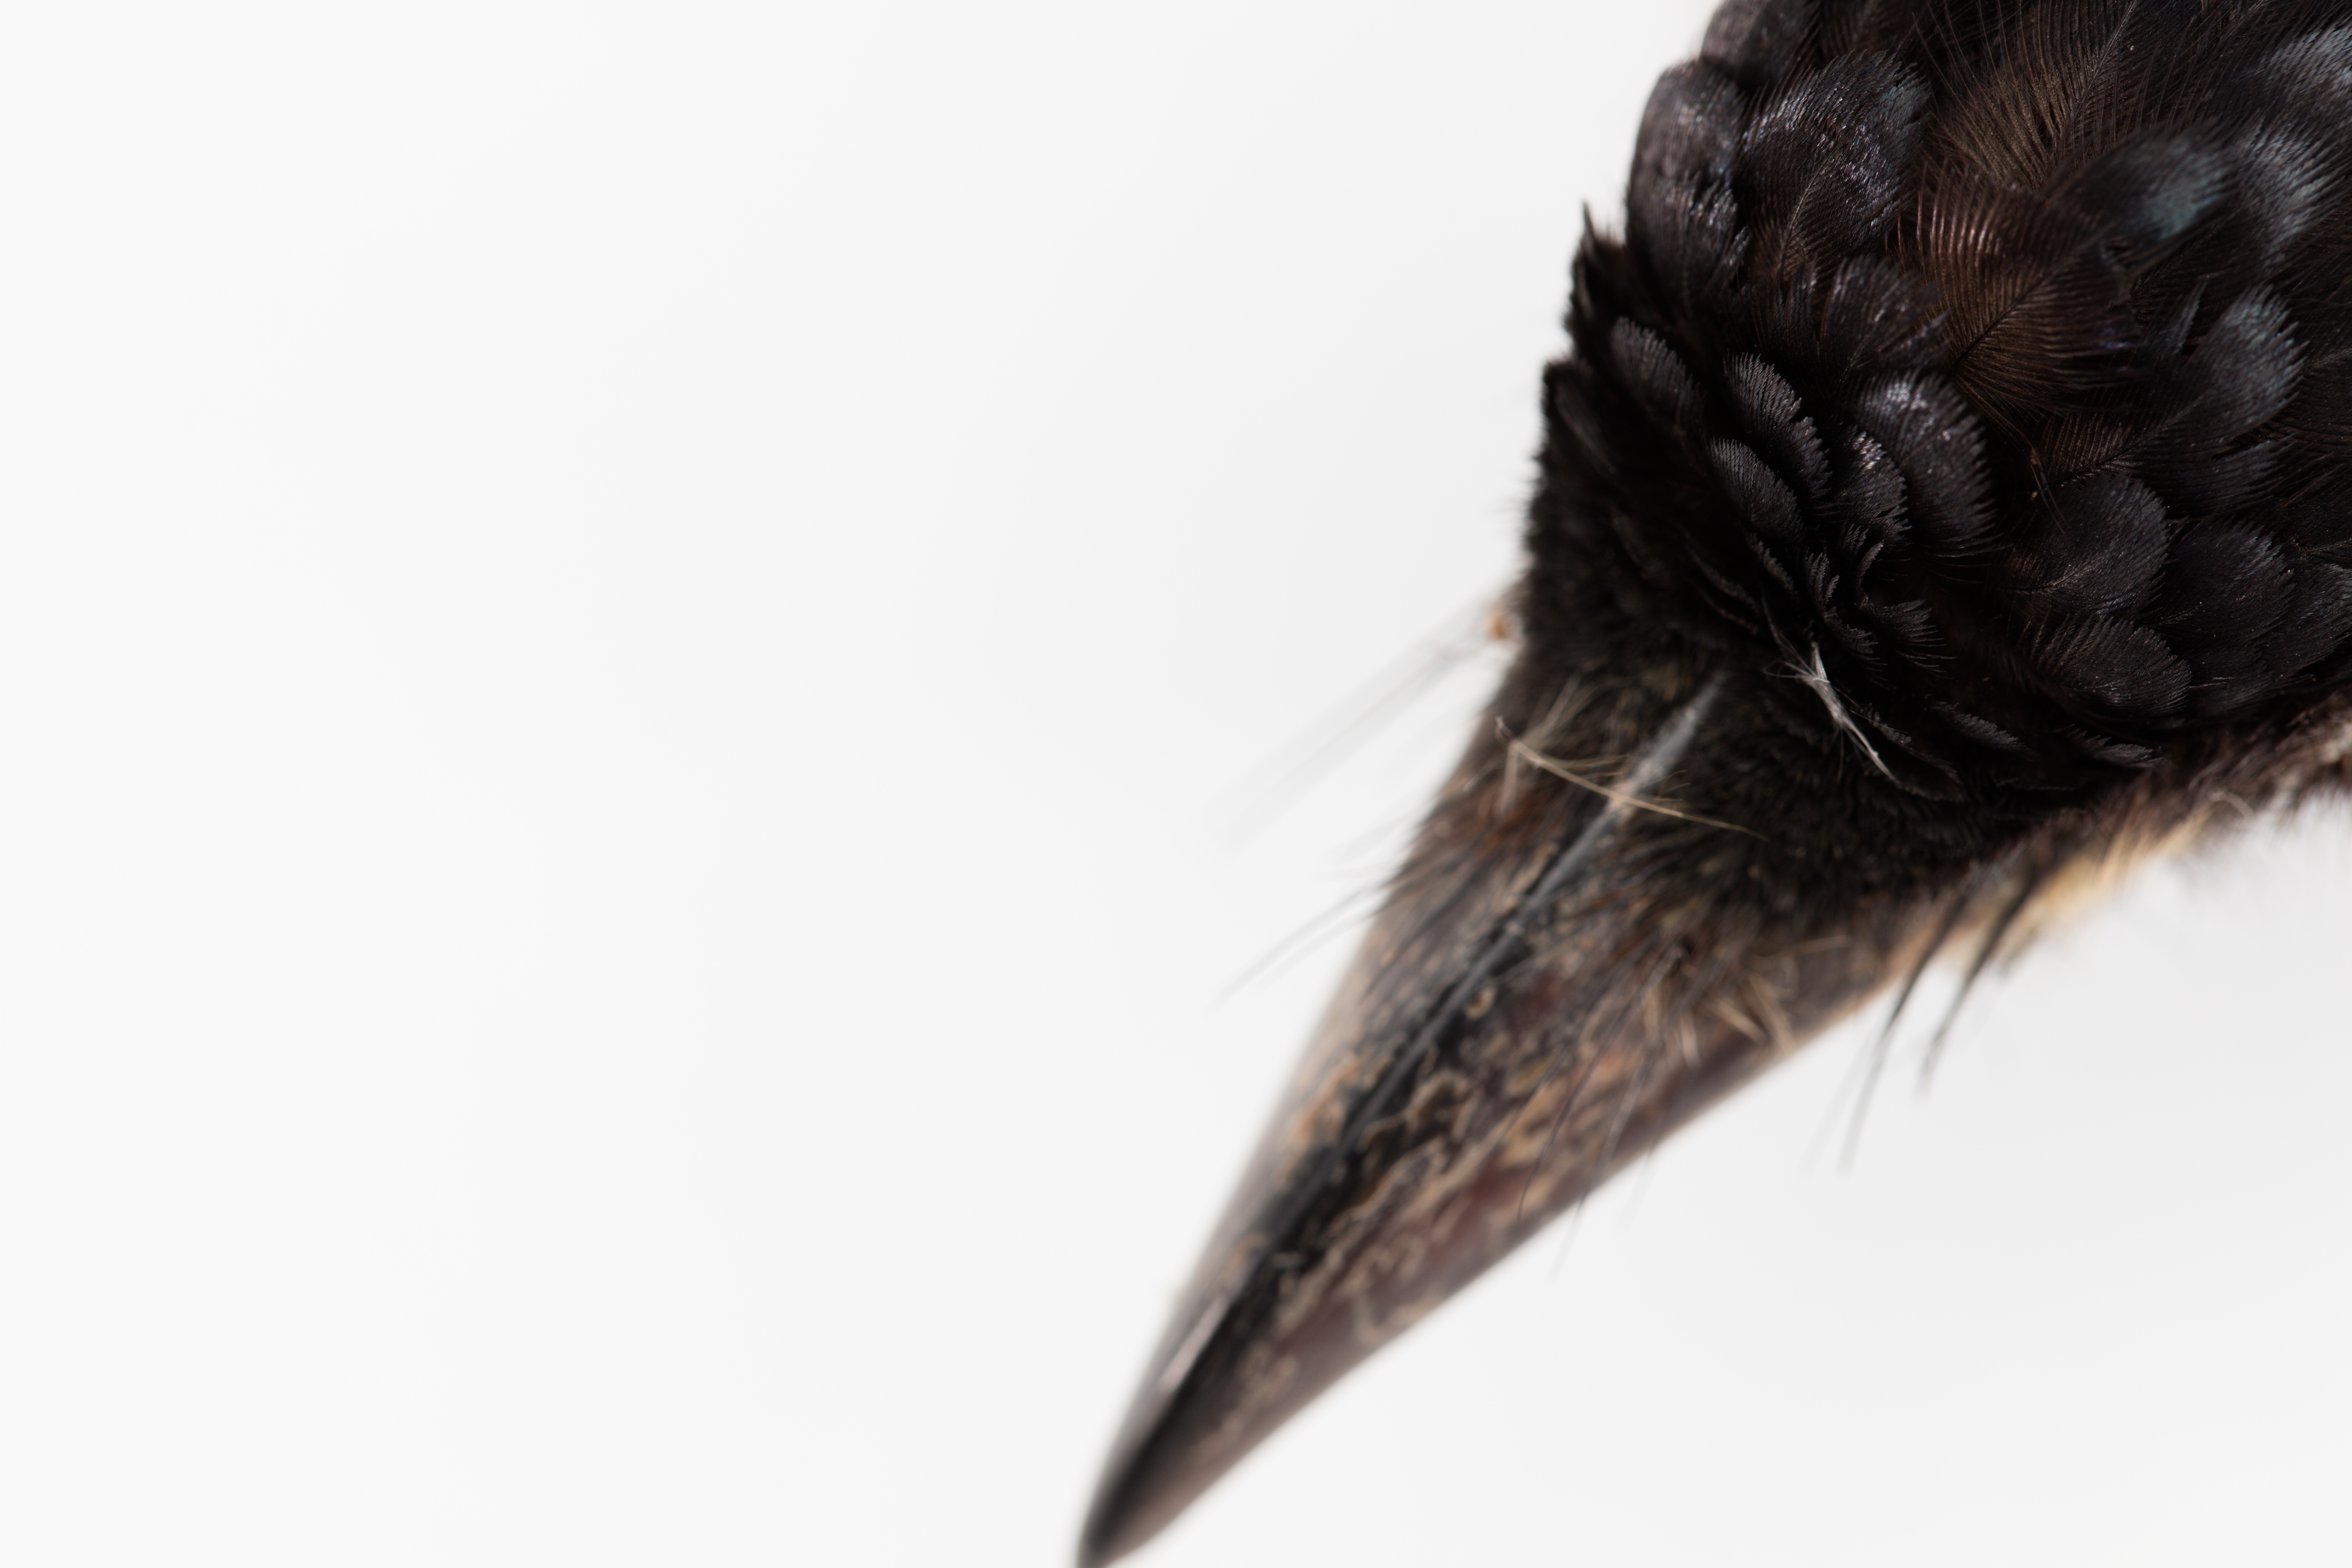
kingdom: Animalia
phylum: Chordata
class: Aves
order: Passeriformes
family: Dicruridae
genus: Dicrurus
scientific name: Dicrurus bracteatus
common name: Spangled drongo
